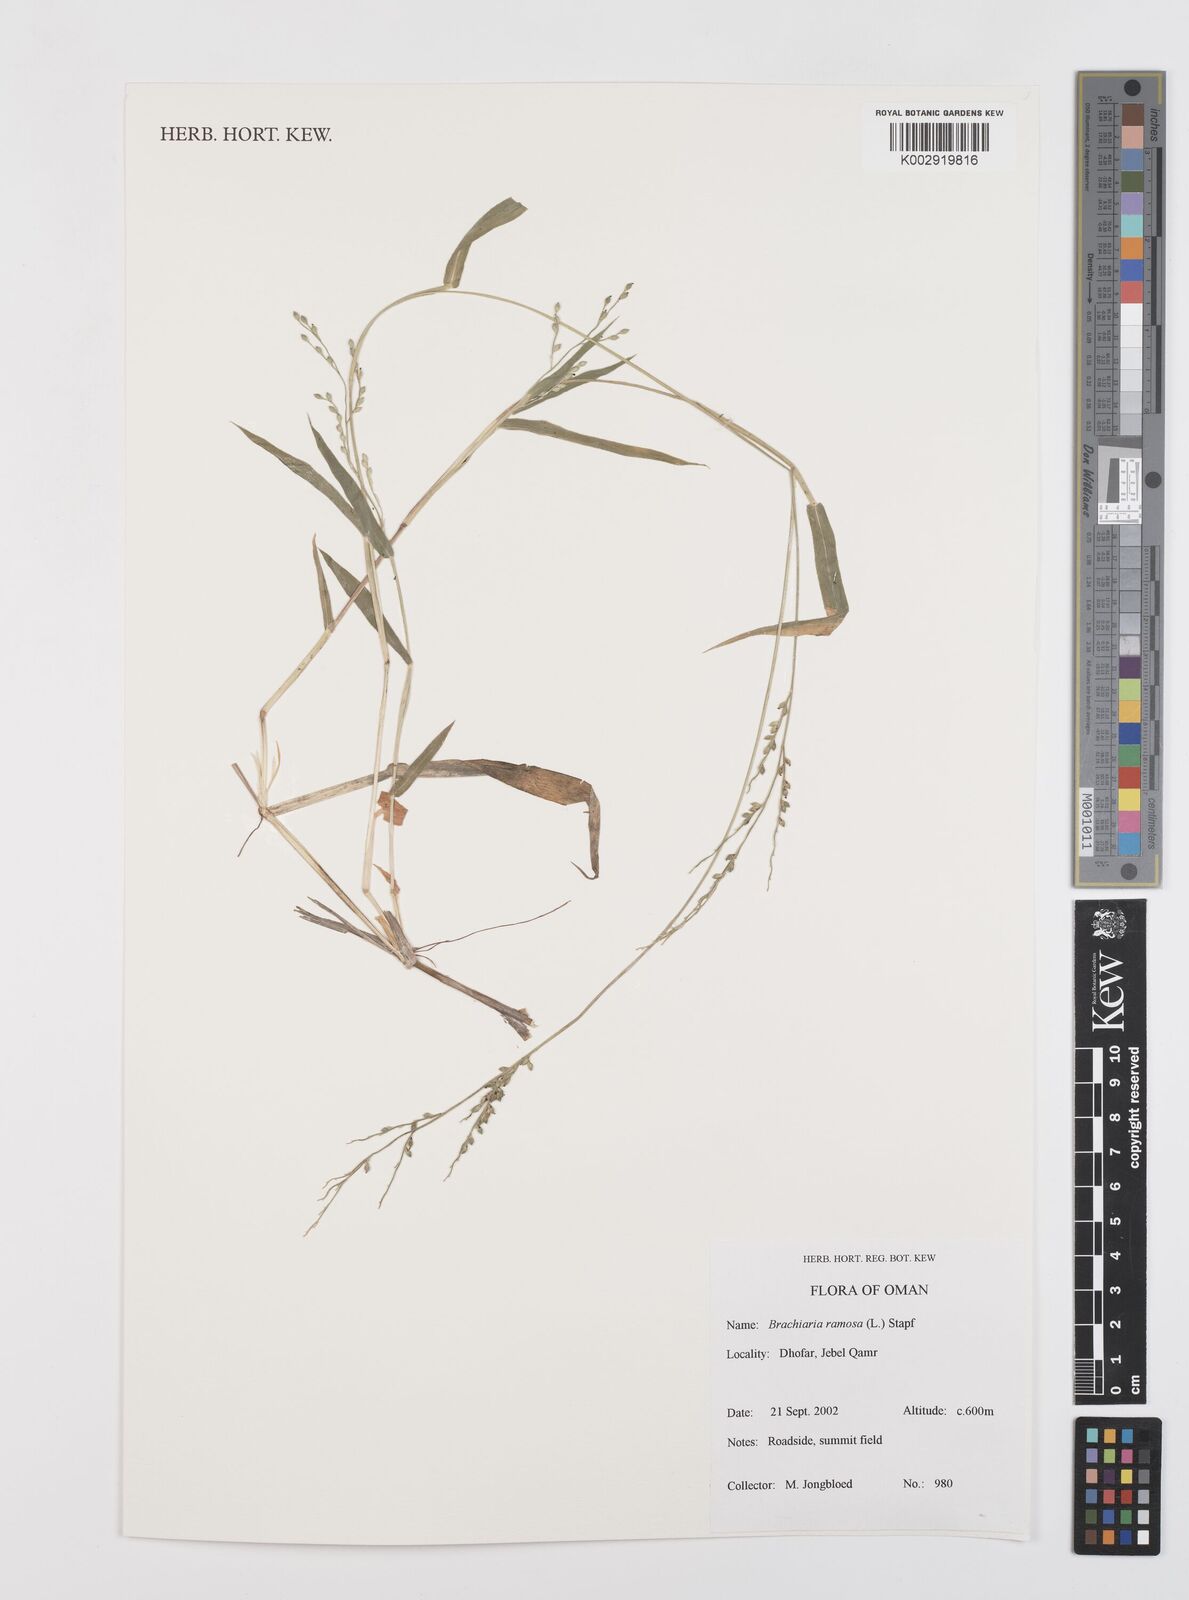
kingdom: Plantae
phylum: Tracheophyta
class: Liliopsida
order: Poales
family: Poaceae
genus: Urochloa
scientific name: Urochloa ramosa
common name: Browntop millet
